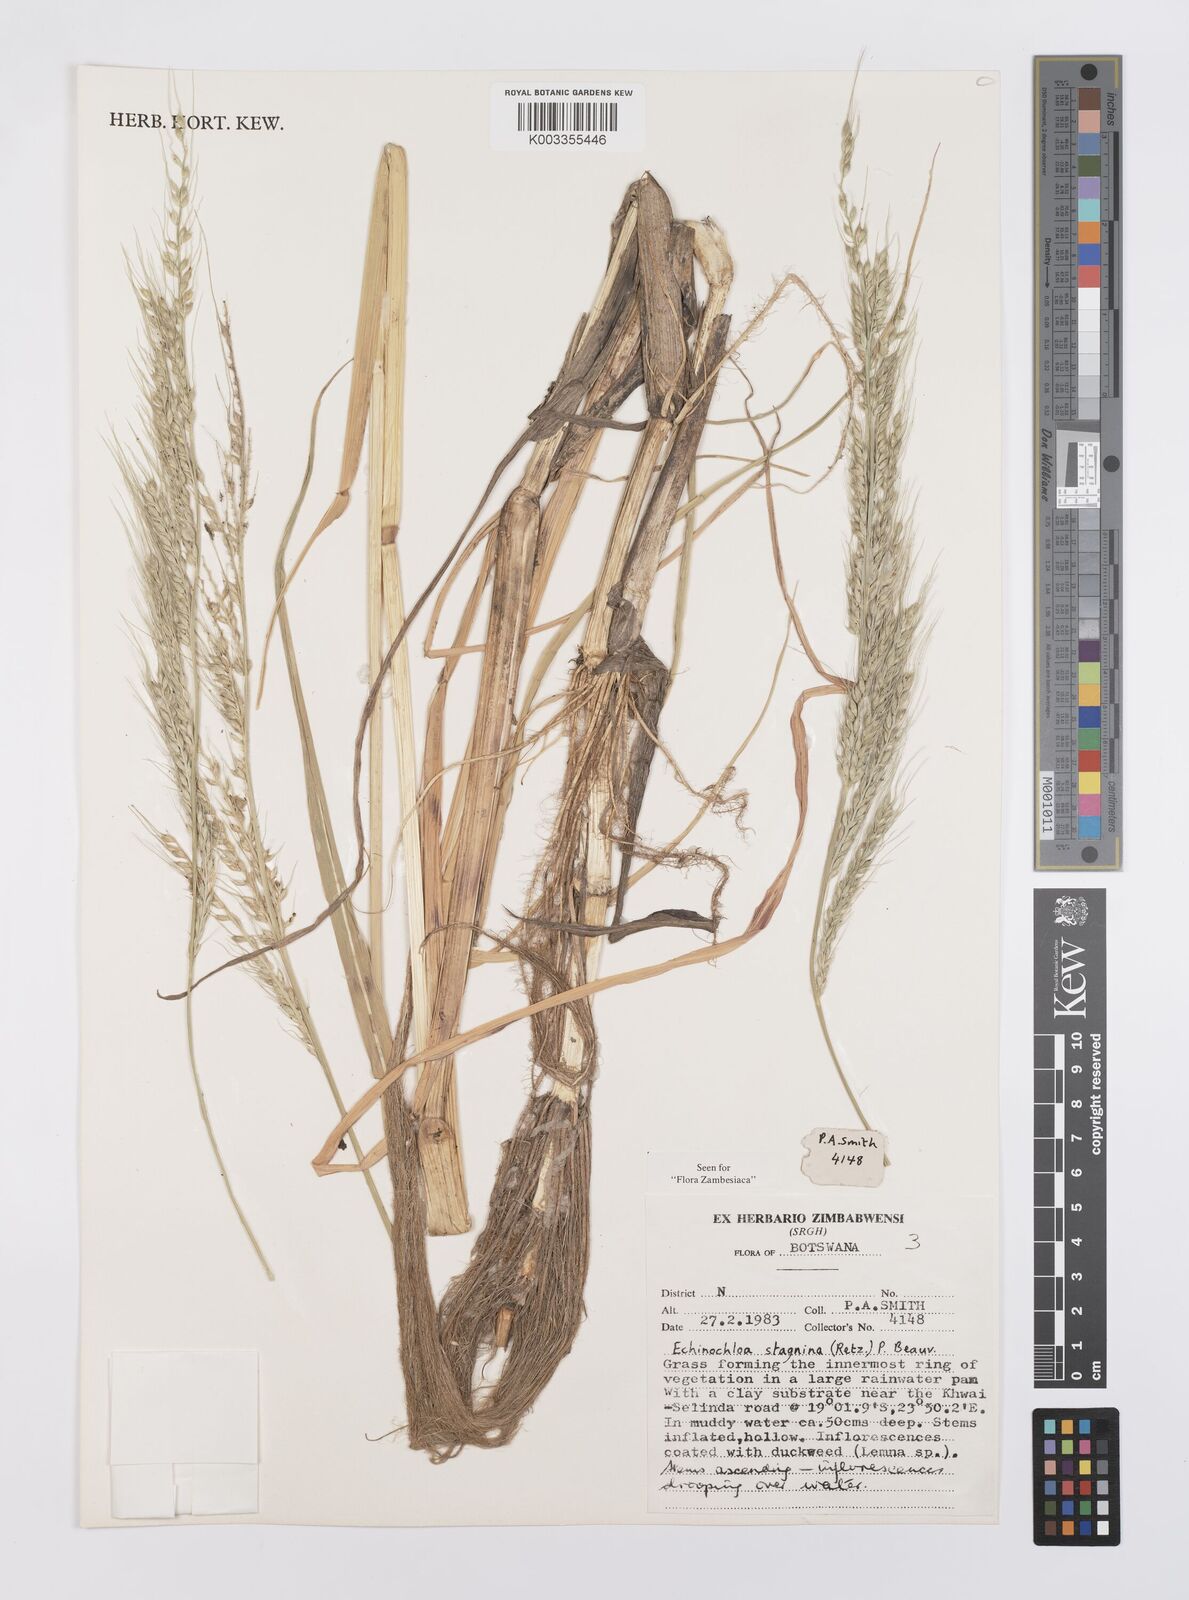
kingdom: Plantae
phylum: Tracheophyta
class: Liliopsida
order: Poales
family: Poaceae
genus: Echinochloa
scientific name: Echinochloa stagnina
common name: Burgu grass
